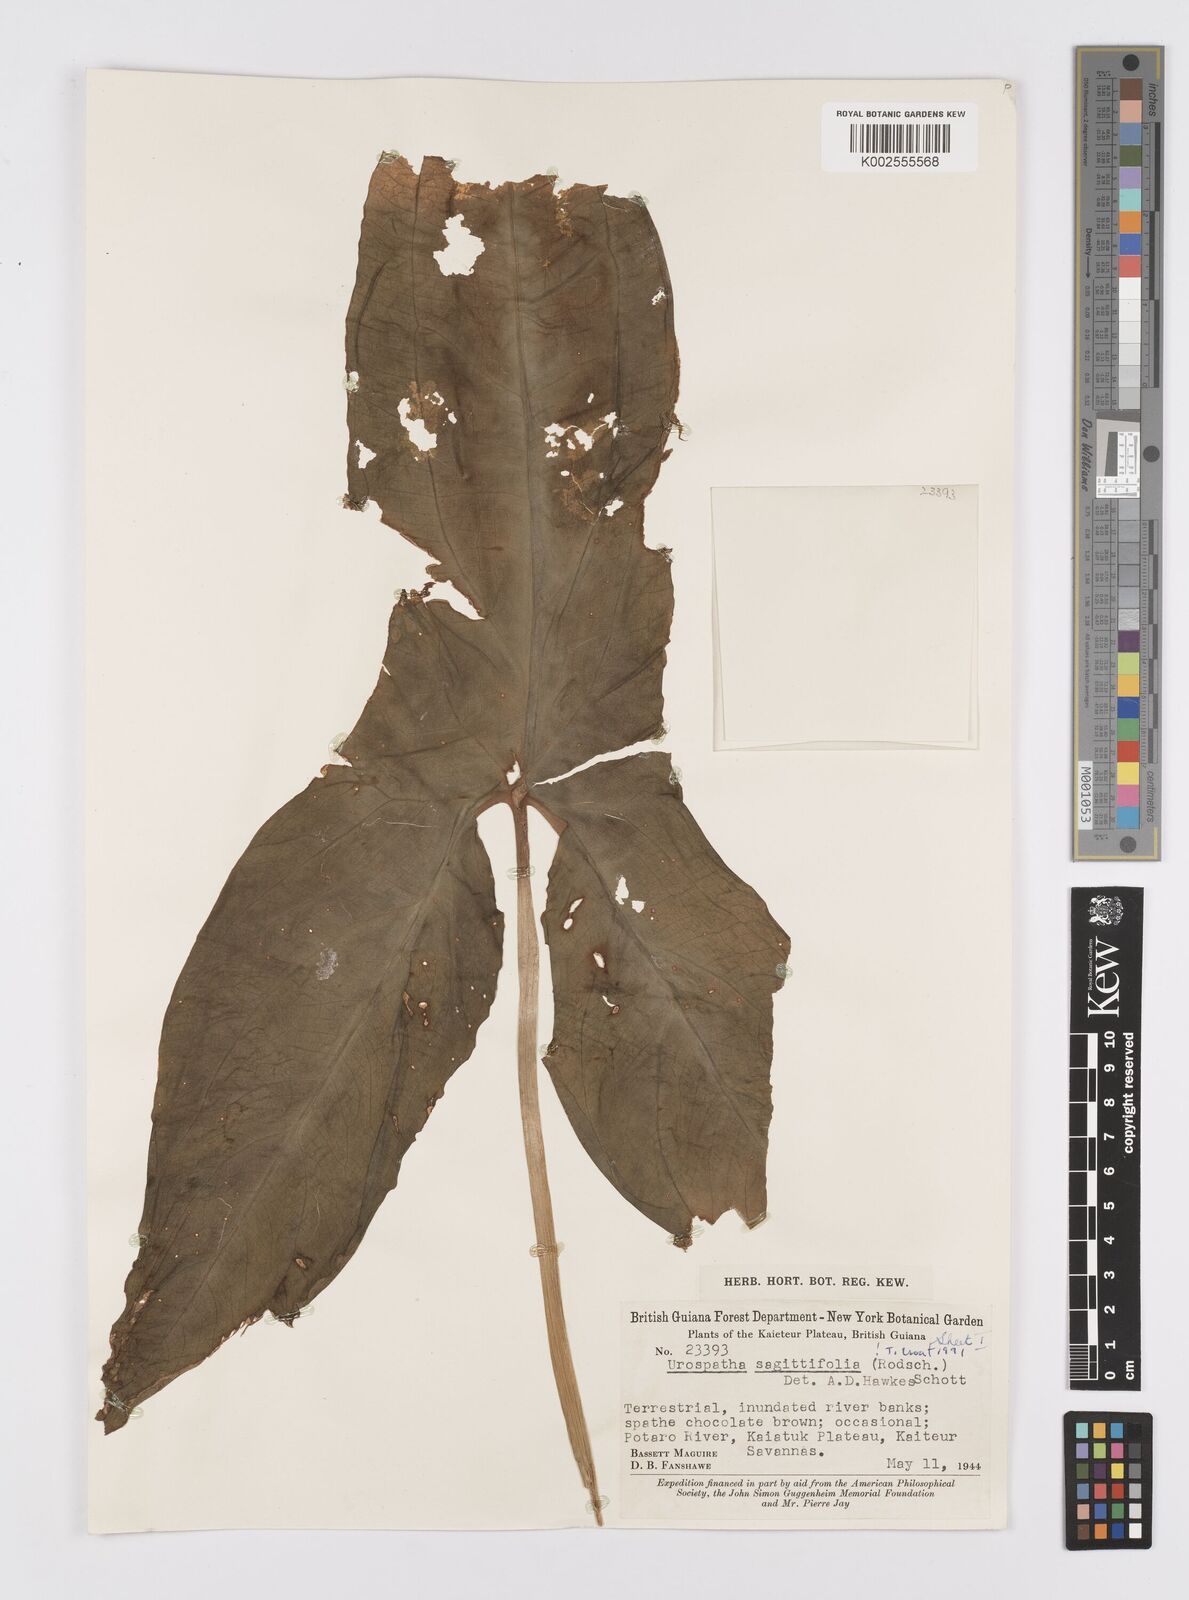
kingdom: Plantae
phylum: Tracheophyta
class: Liliopsida
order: Alismatales
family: Araceae
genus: Urospatha
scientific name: Urospatha sagittifolia
